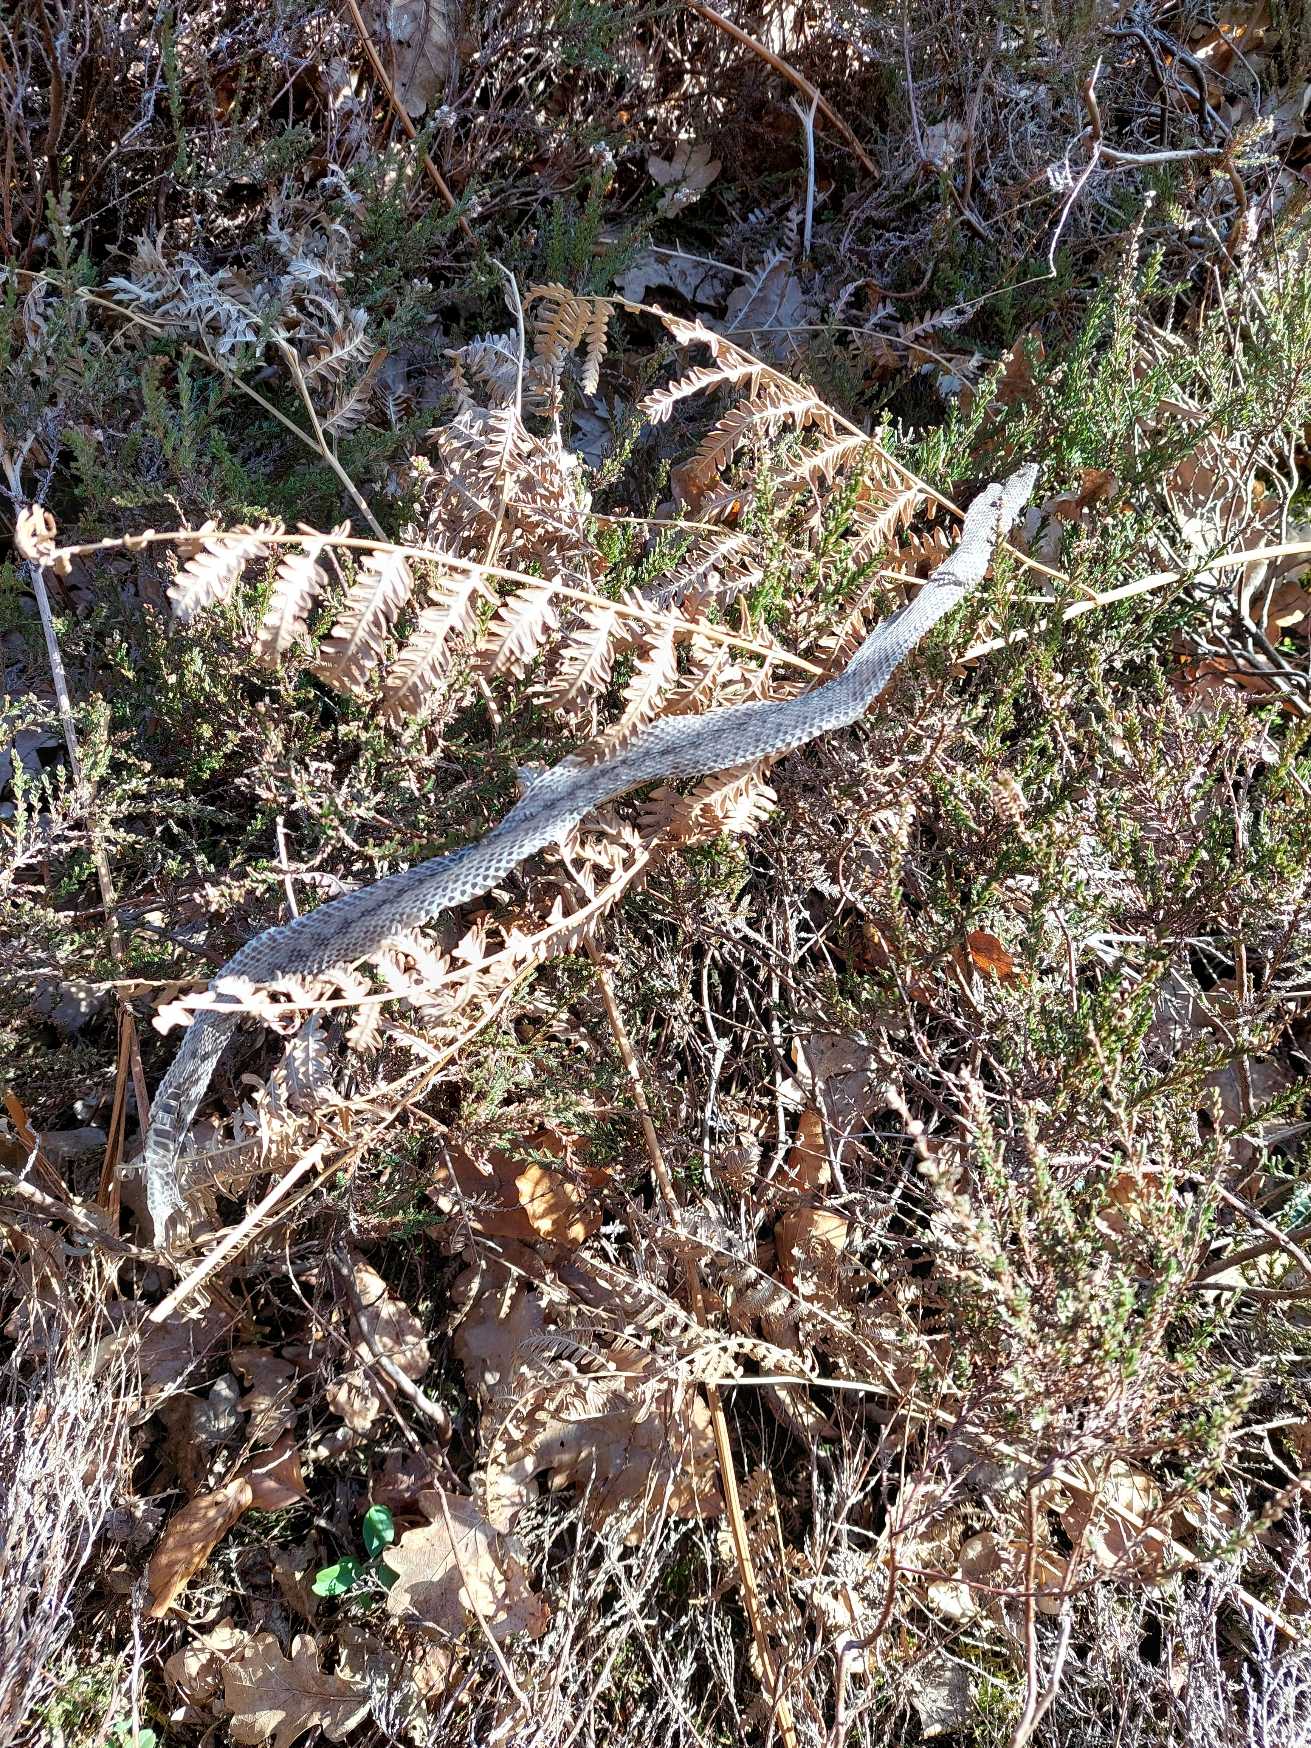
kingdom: Animalia
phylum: Chordata
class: Squamata
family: Viperidae
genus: Vipera
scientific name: Vipera berus
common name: Hugorm
